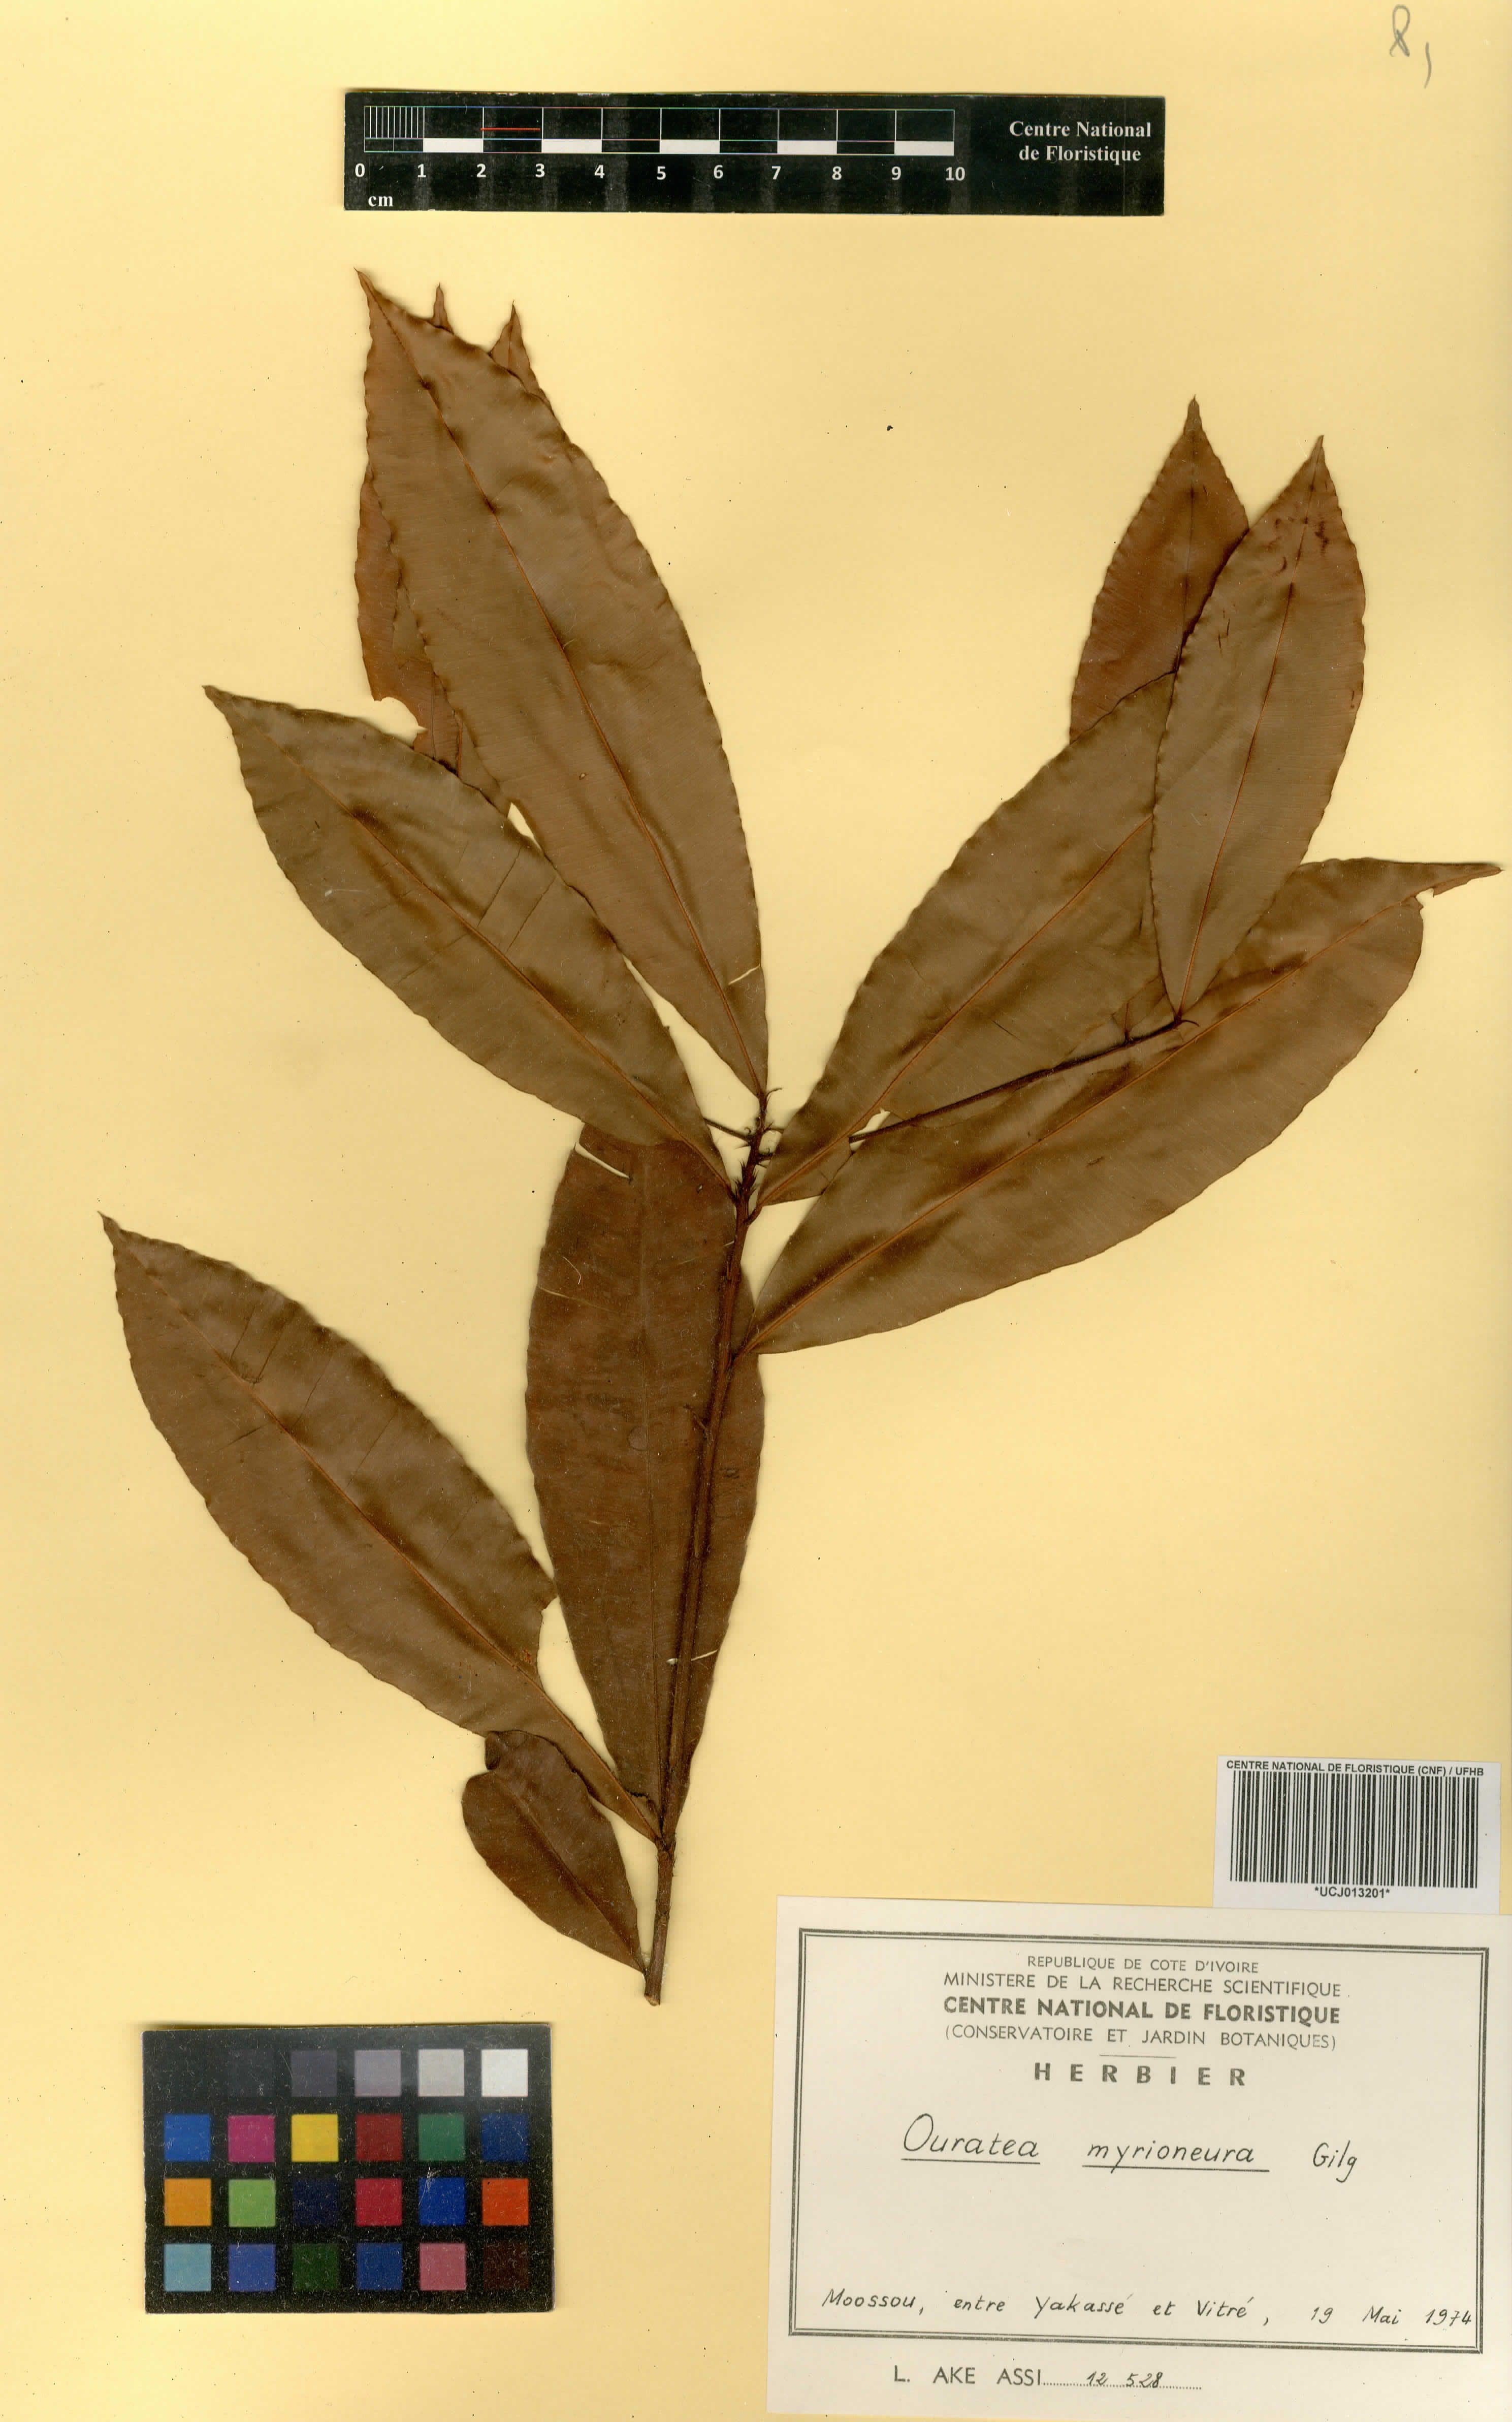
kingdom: Plantae
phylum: Tracheophyta
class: Magnoliopsida
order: Malpighiales
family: Ochnaceae
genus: Rhabdophyllum
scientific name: Rhabdophyllum affine
